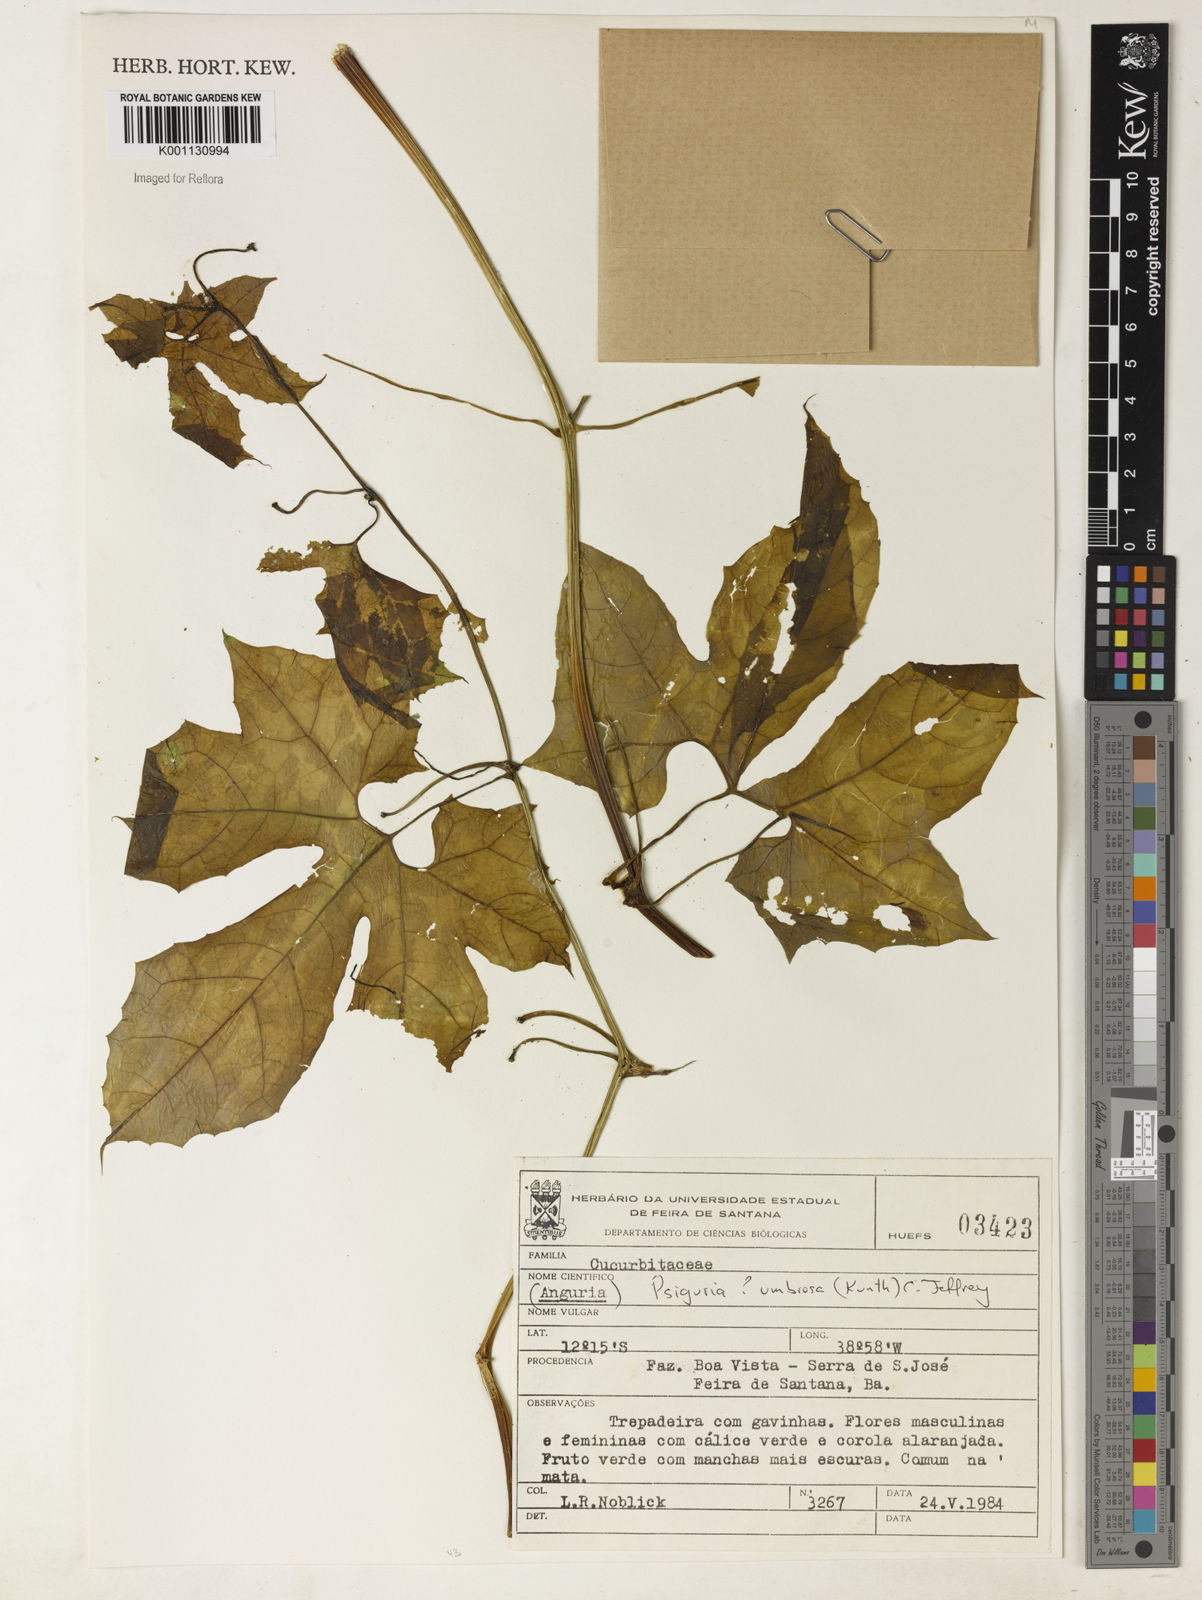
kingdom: Plantae
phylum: Tracheophyta
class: Magnoliopsida
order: Cucurbitales
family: Cucurbitaceae
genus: Psiguria
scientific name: Psiguria umbrosa
